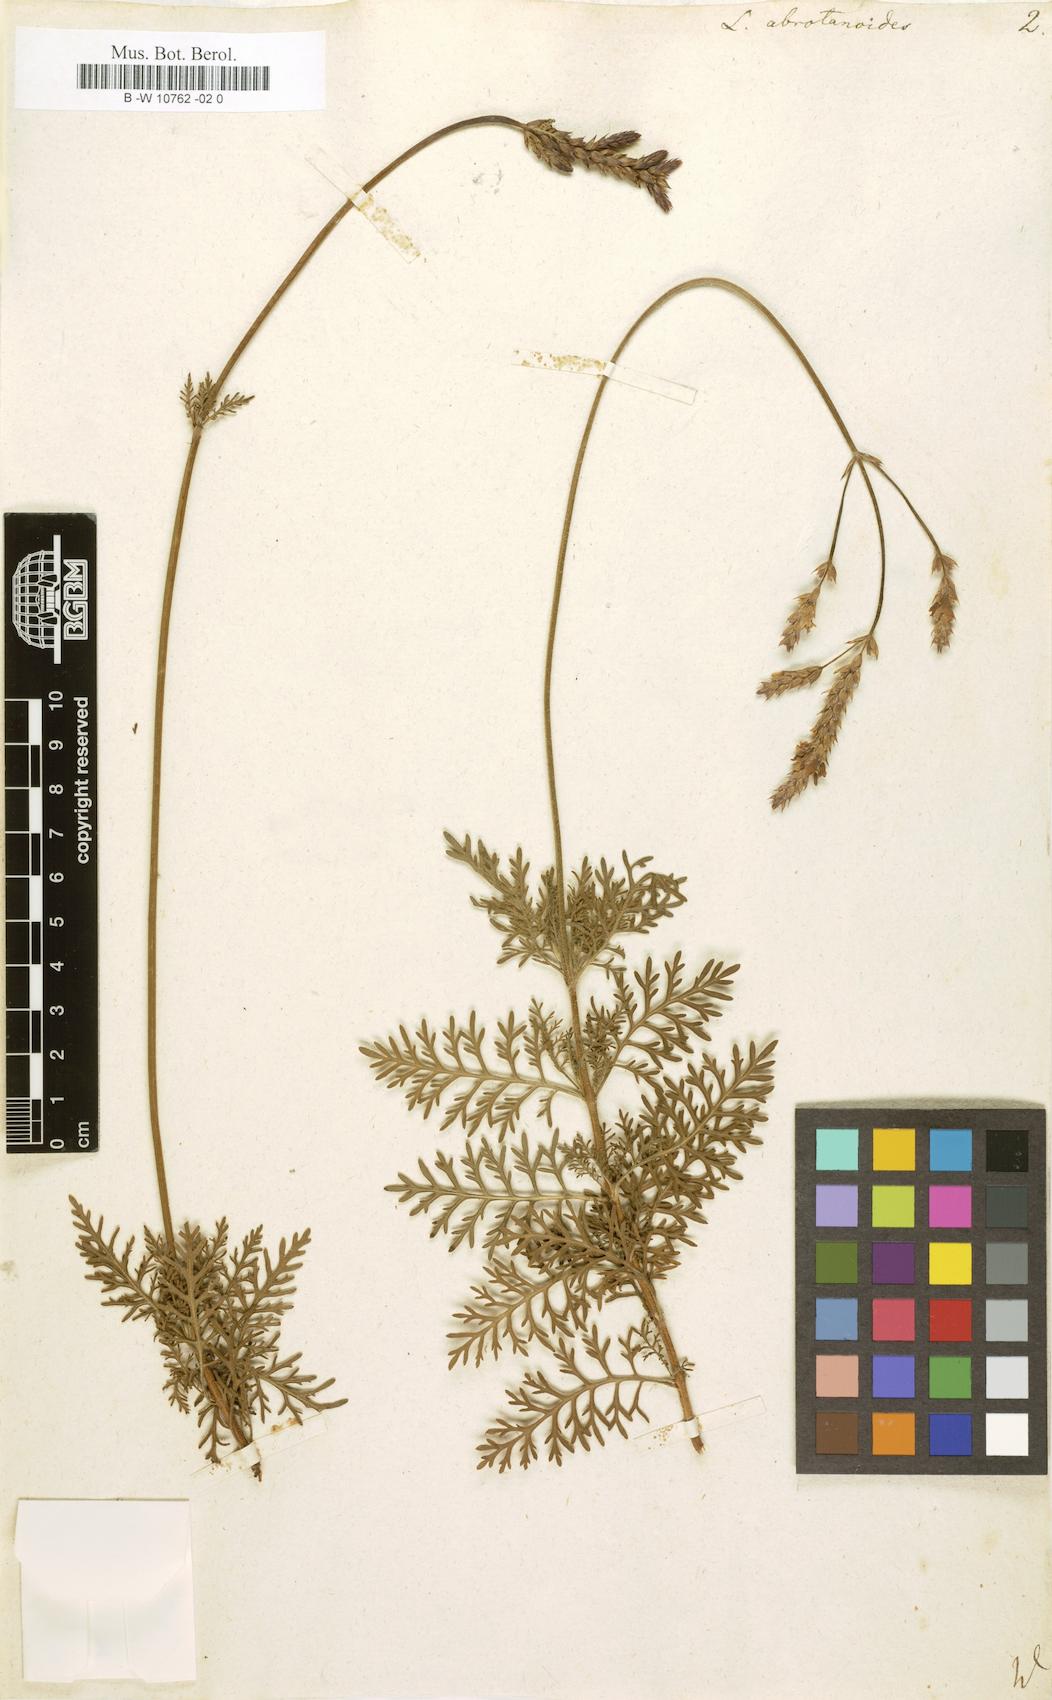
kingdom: Plantae
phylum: Tracheophyta
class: Magnoliopsida
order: Lamiales
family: Lamiaceae
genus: Lavandula
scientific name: Lavandula canariensis
